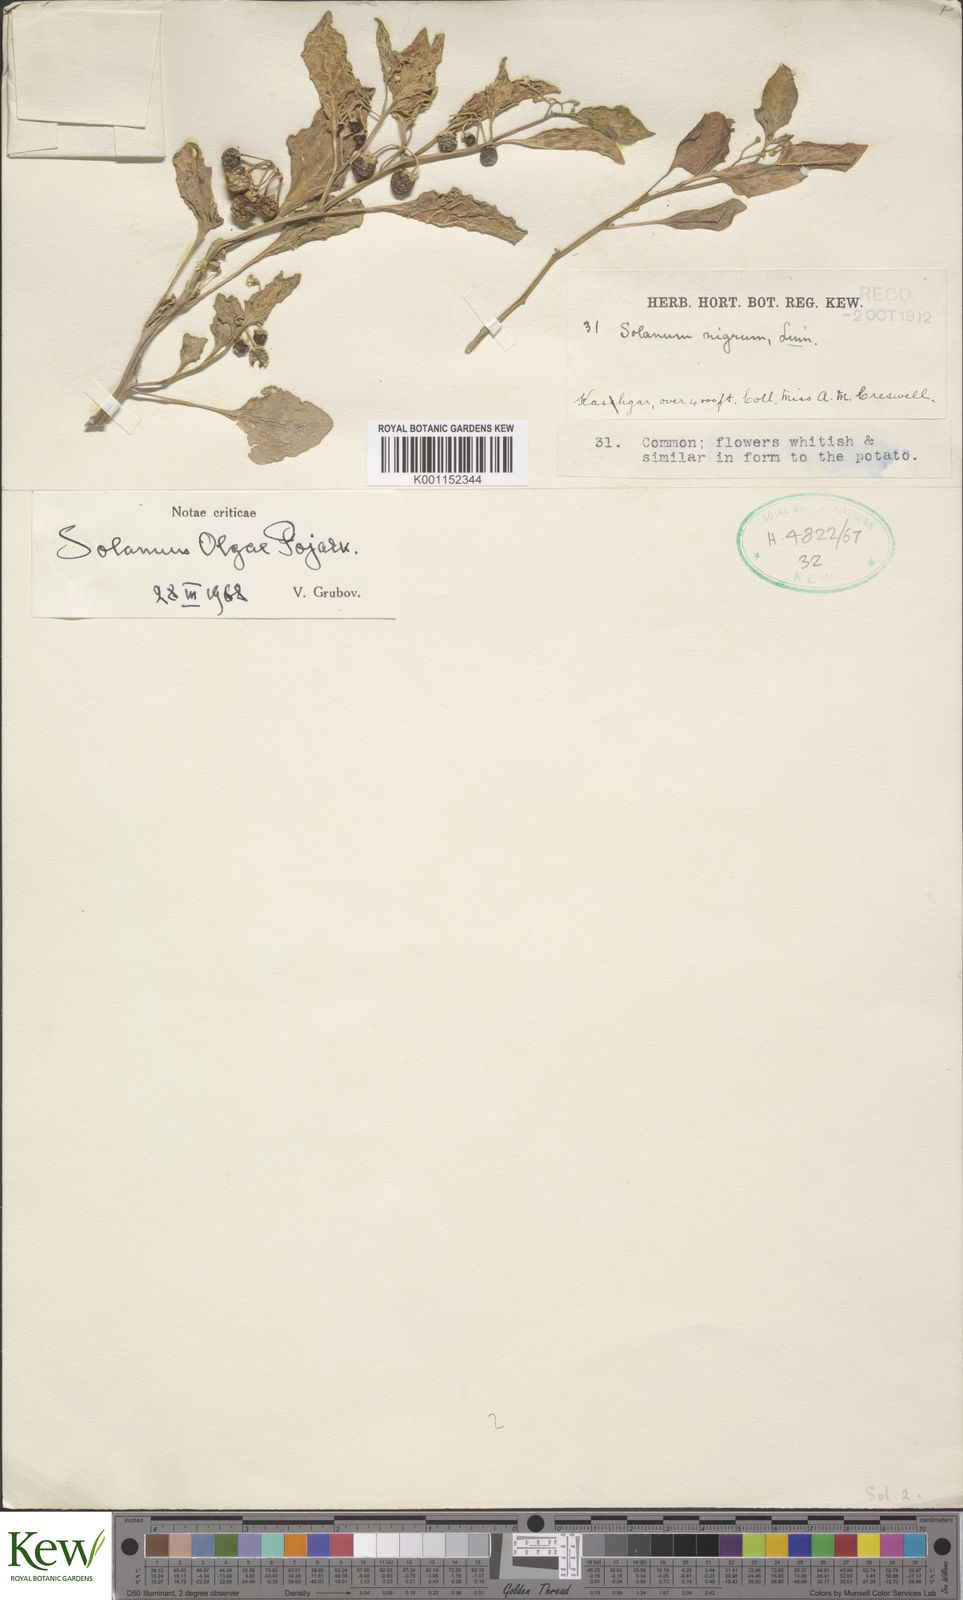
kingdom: Plantae
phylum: Tracheophyta
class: Magnoliopsida
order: Solanales
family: Solanaceae
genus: Solanum
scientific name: Solanum nigrum
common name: Black nightshade
